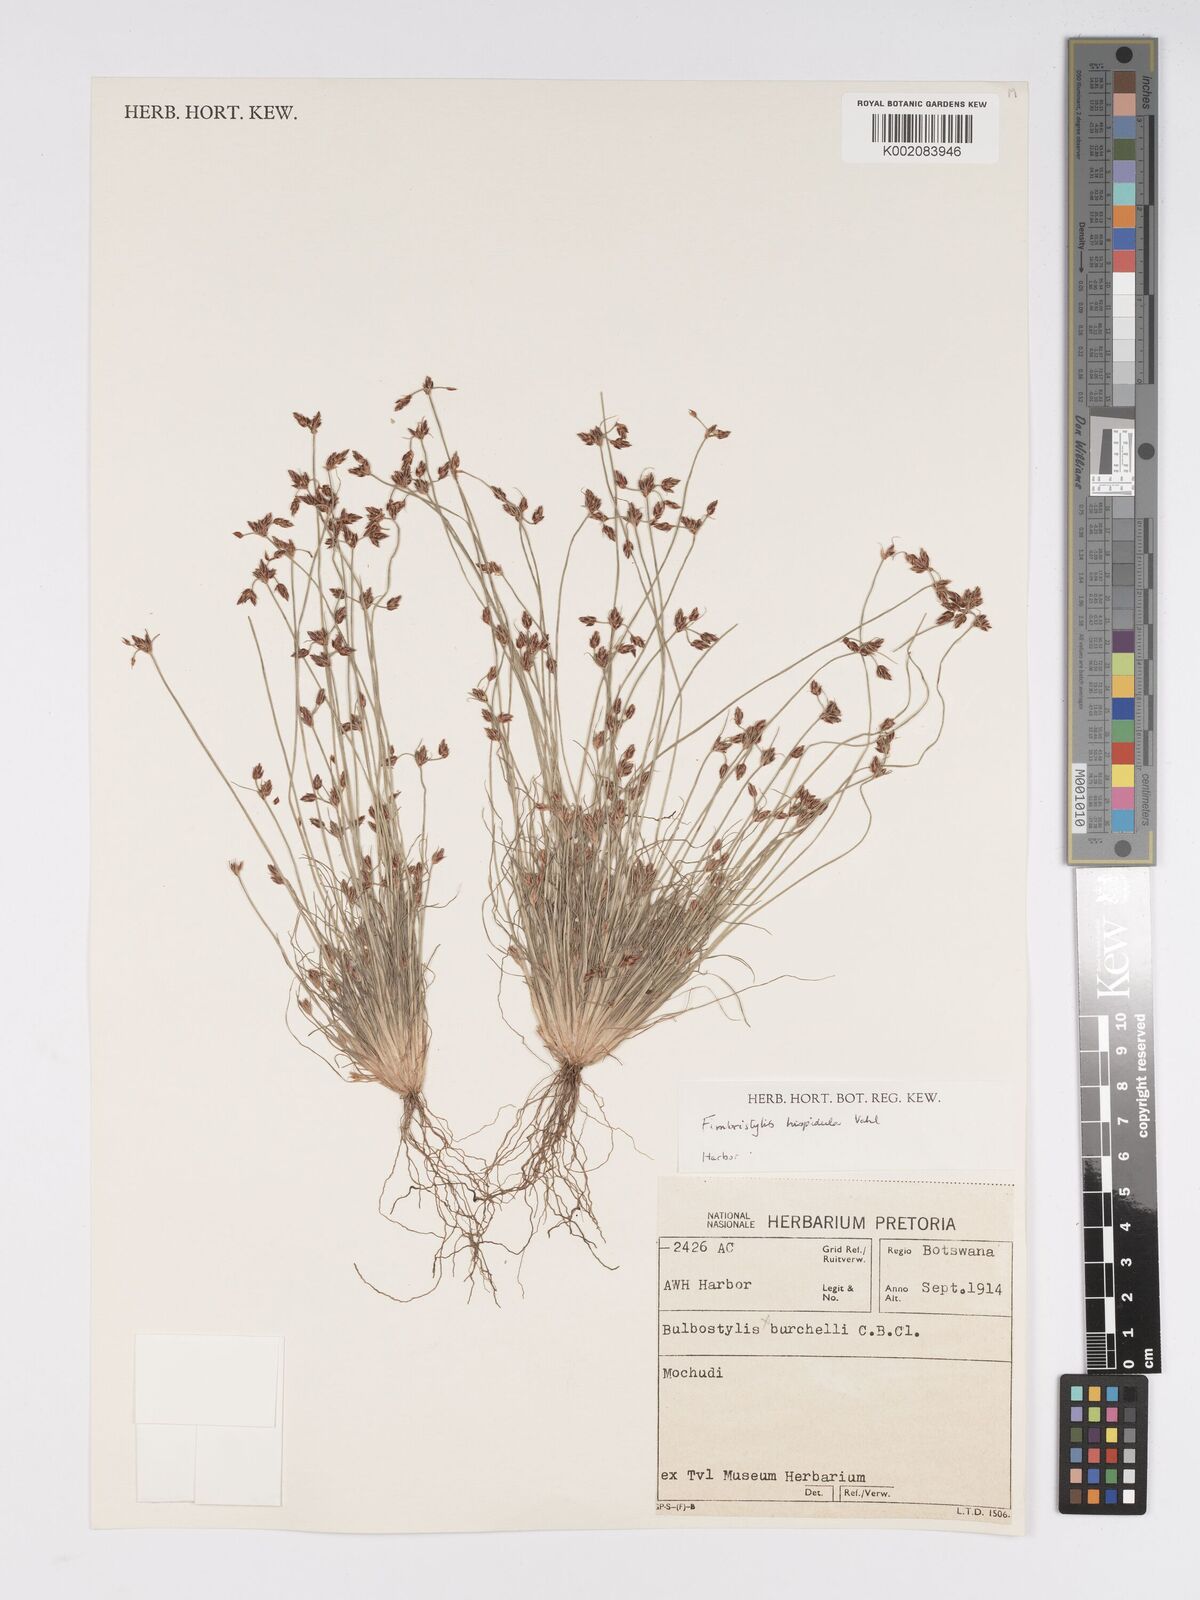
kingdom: Plantae
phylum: Tracheophyta
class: Liliopsida
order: Poales
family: Cyperaceae
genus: Bulbostylis
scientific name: Bulbostylis hispidula
